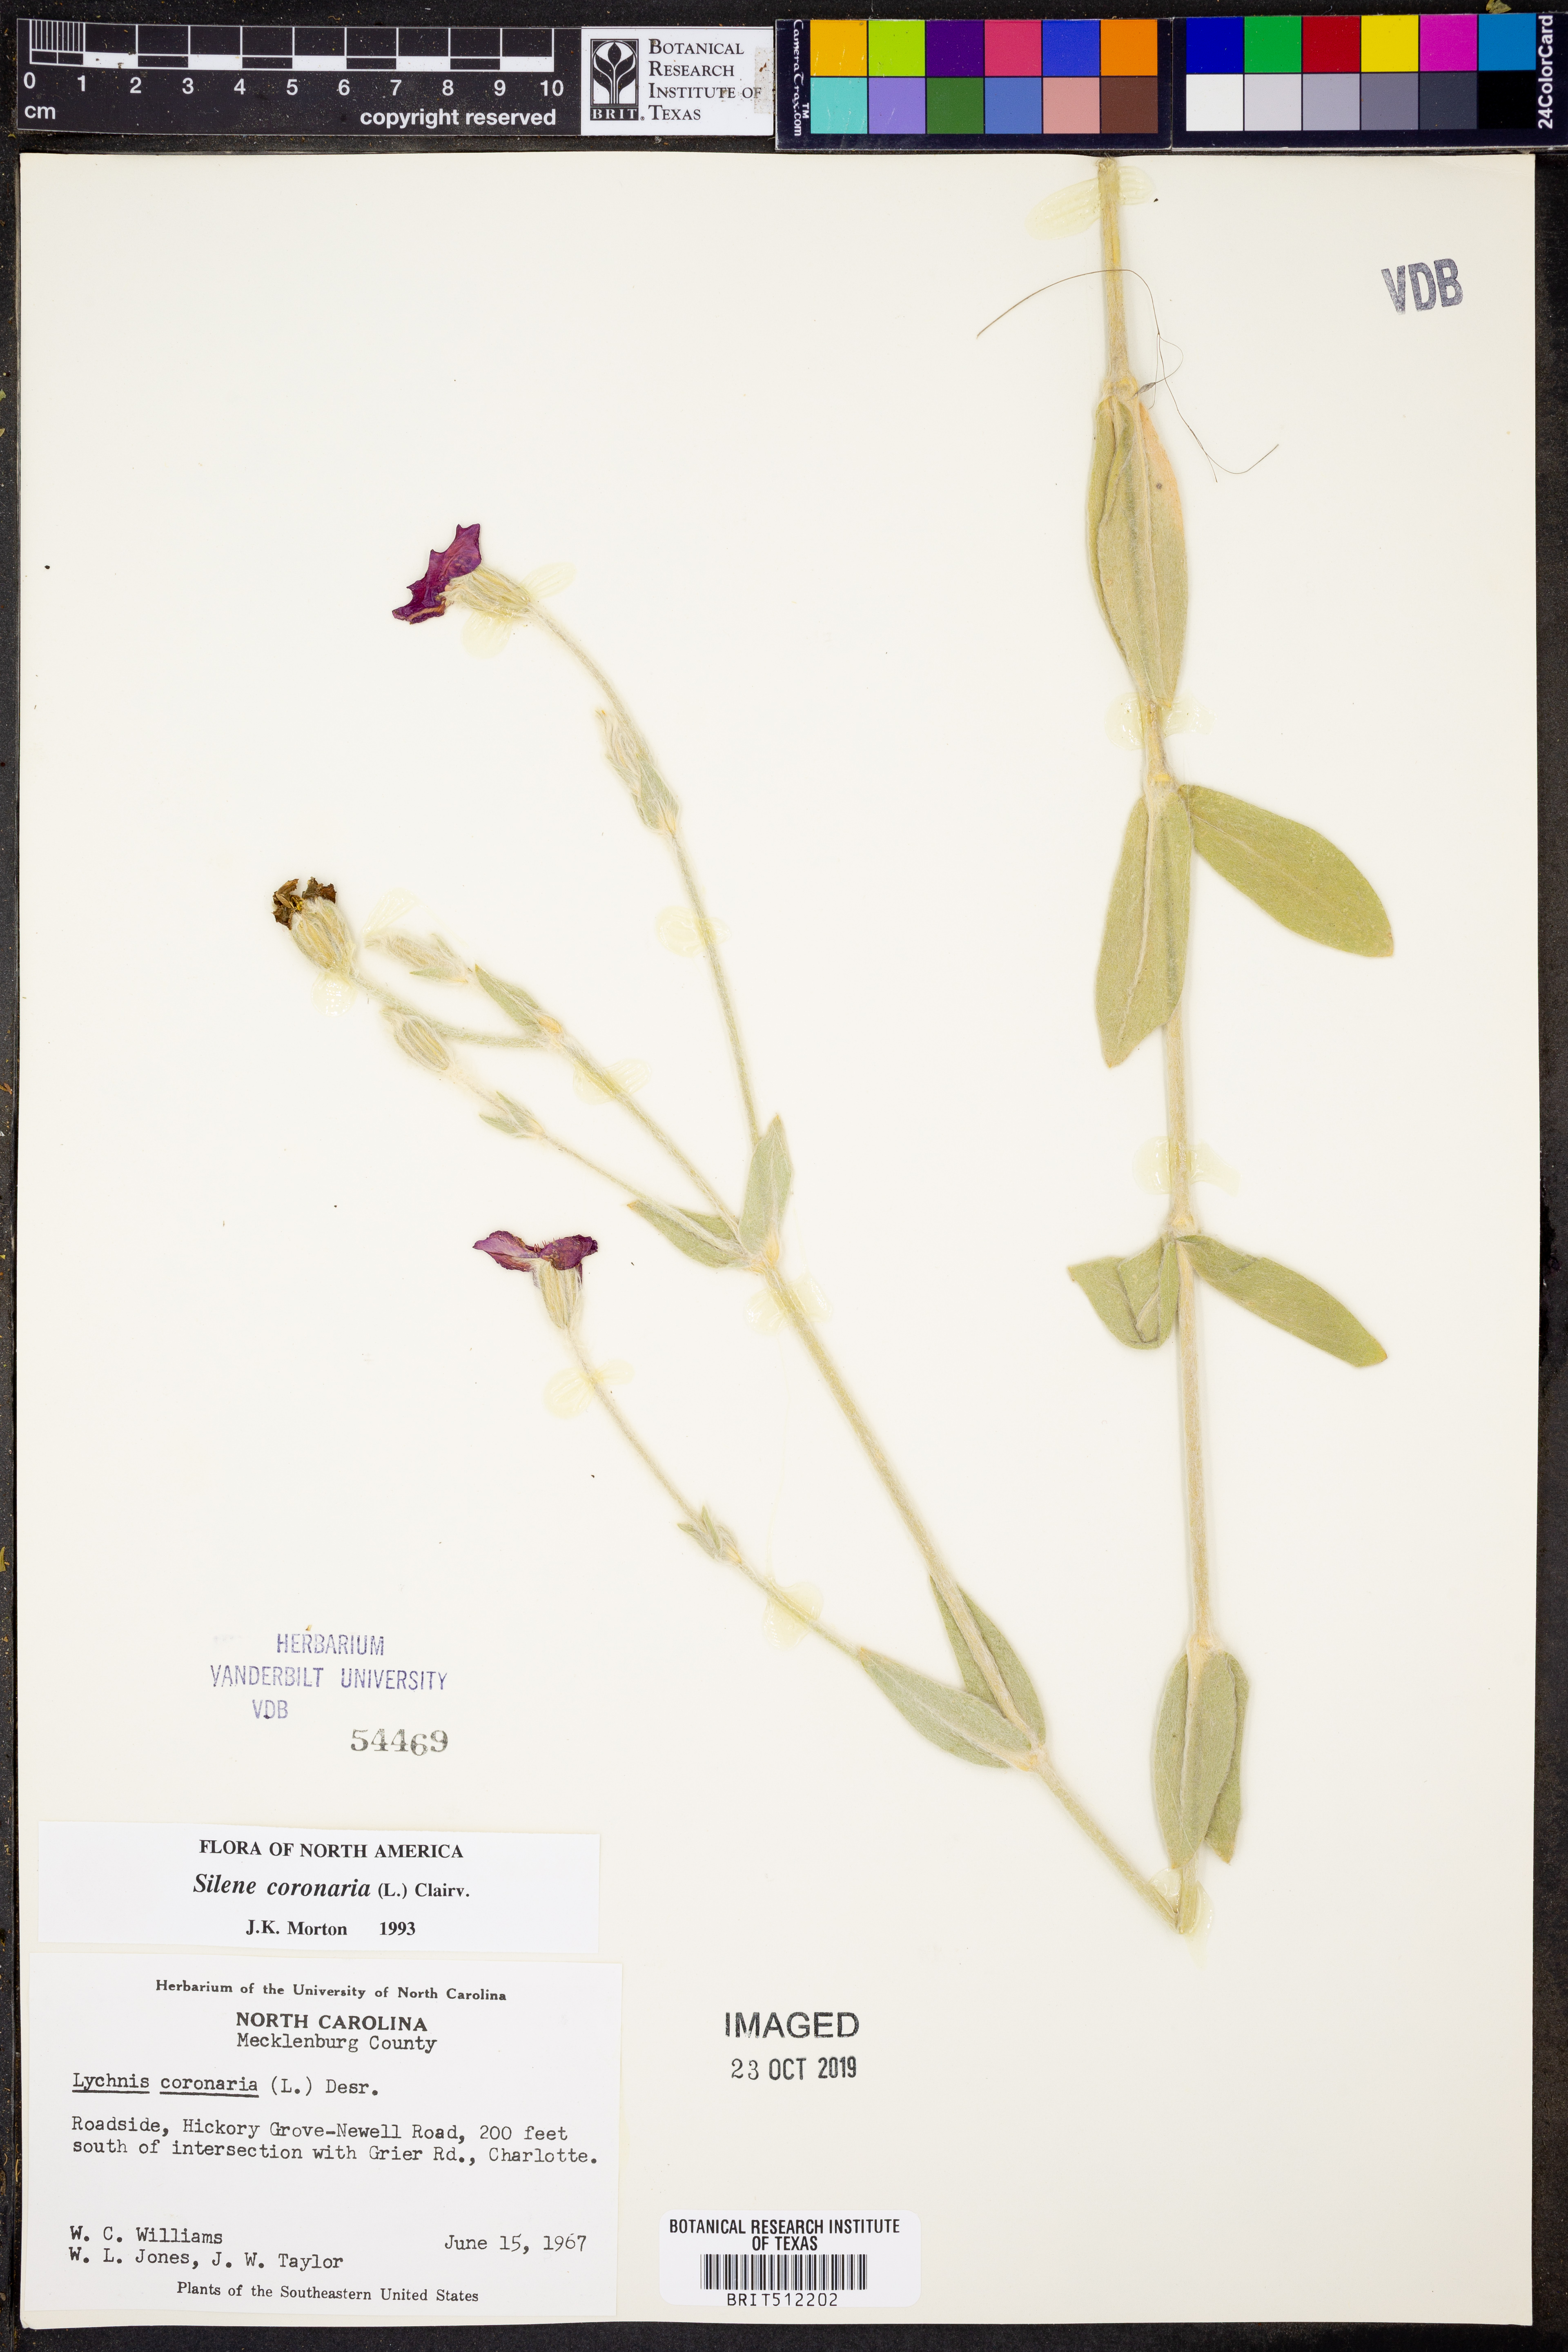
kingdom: Plantae
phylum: Tracheophyta
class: Magnoliopsida
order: Caryophyllales
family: Caryophyllaceae
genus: Silene
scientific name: Silene coronaria
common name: Rose campion
